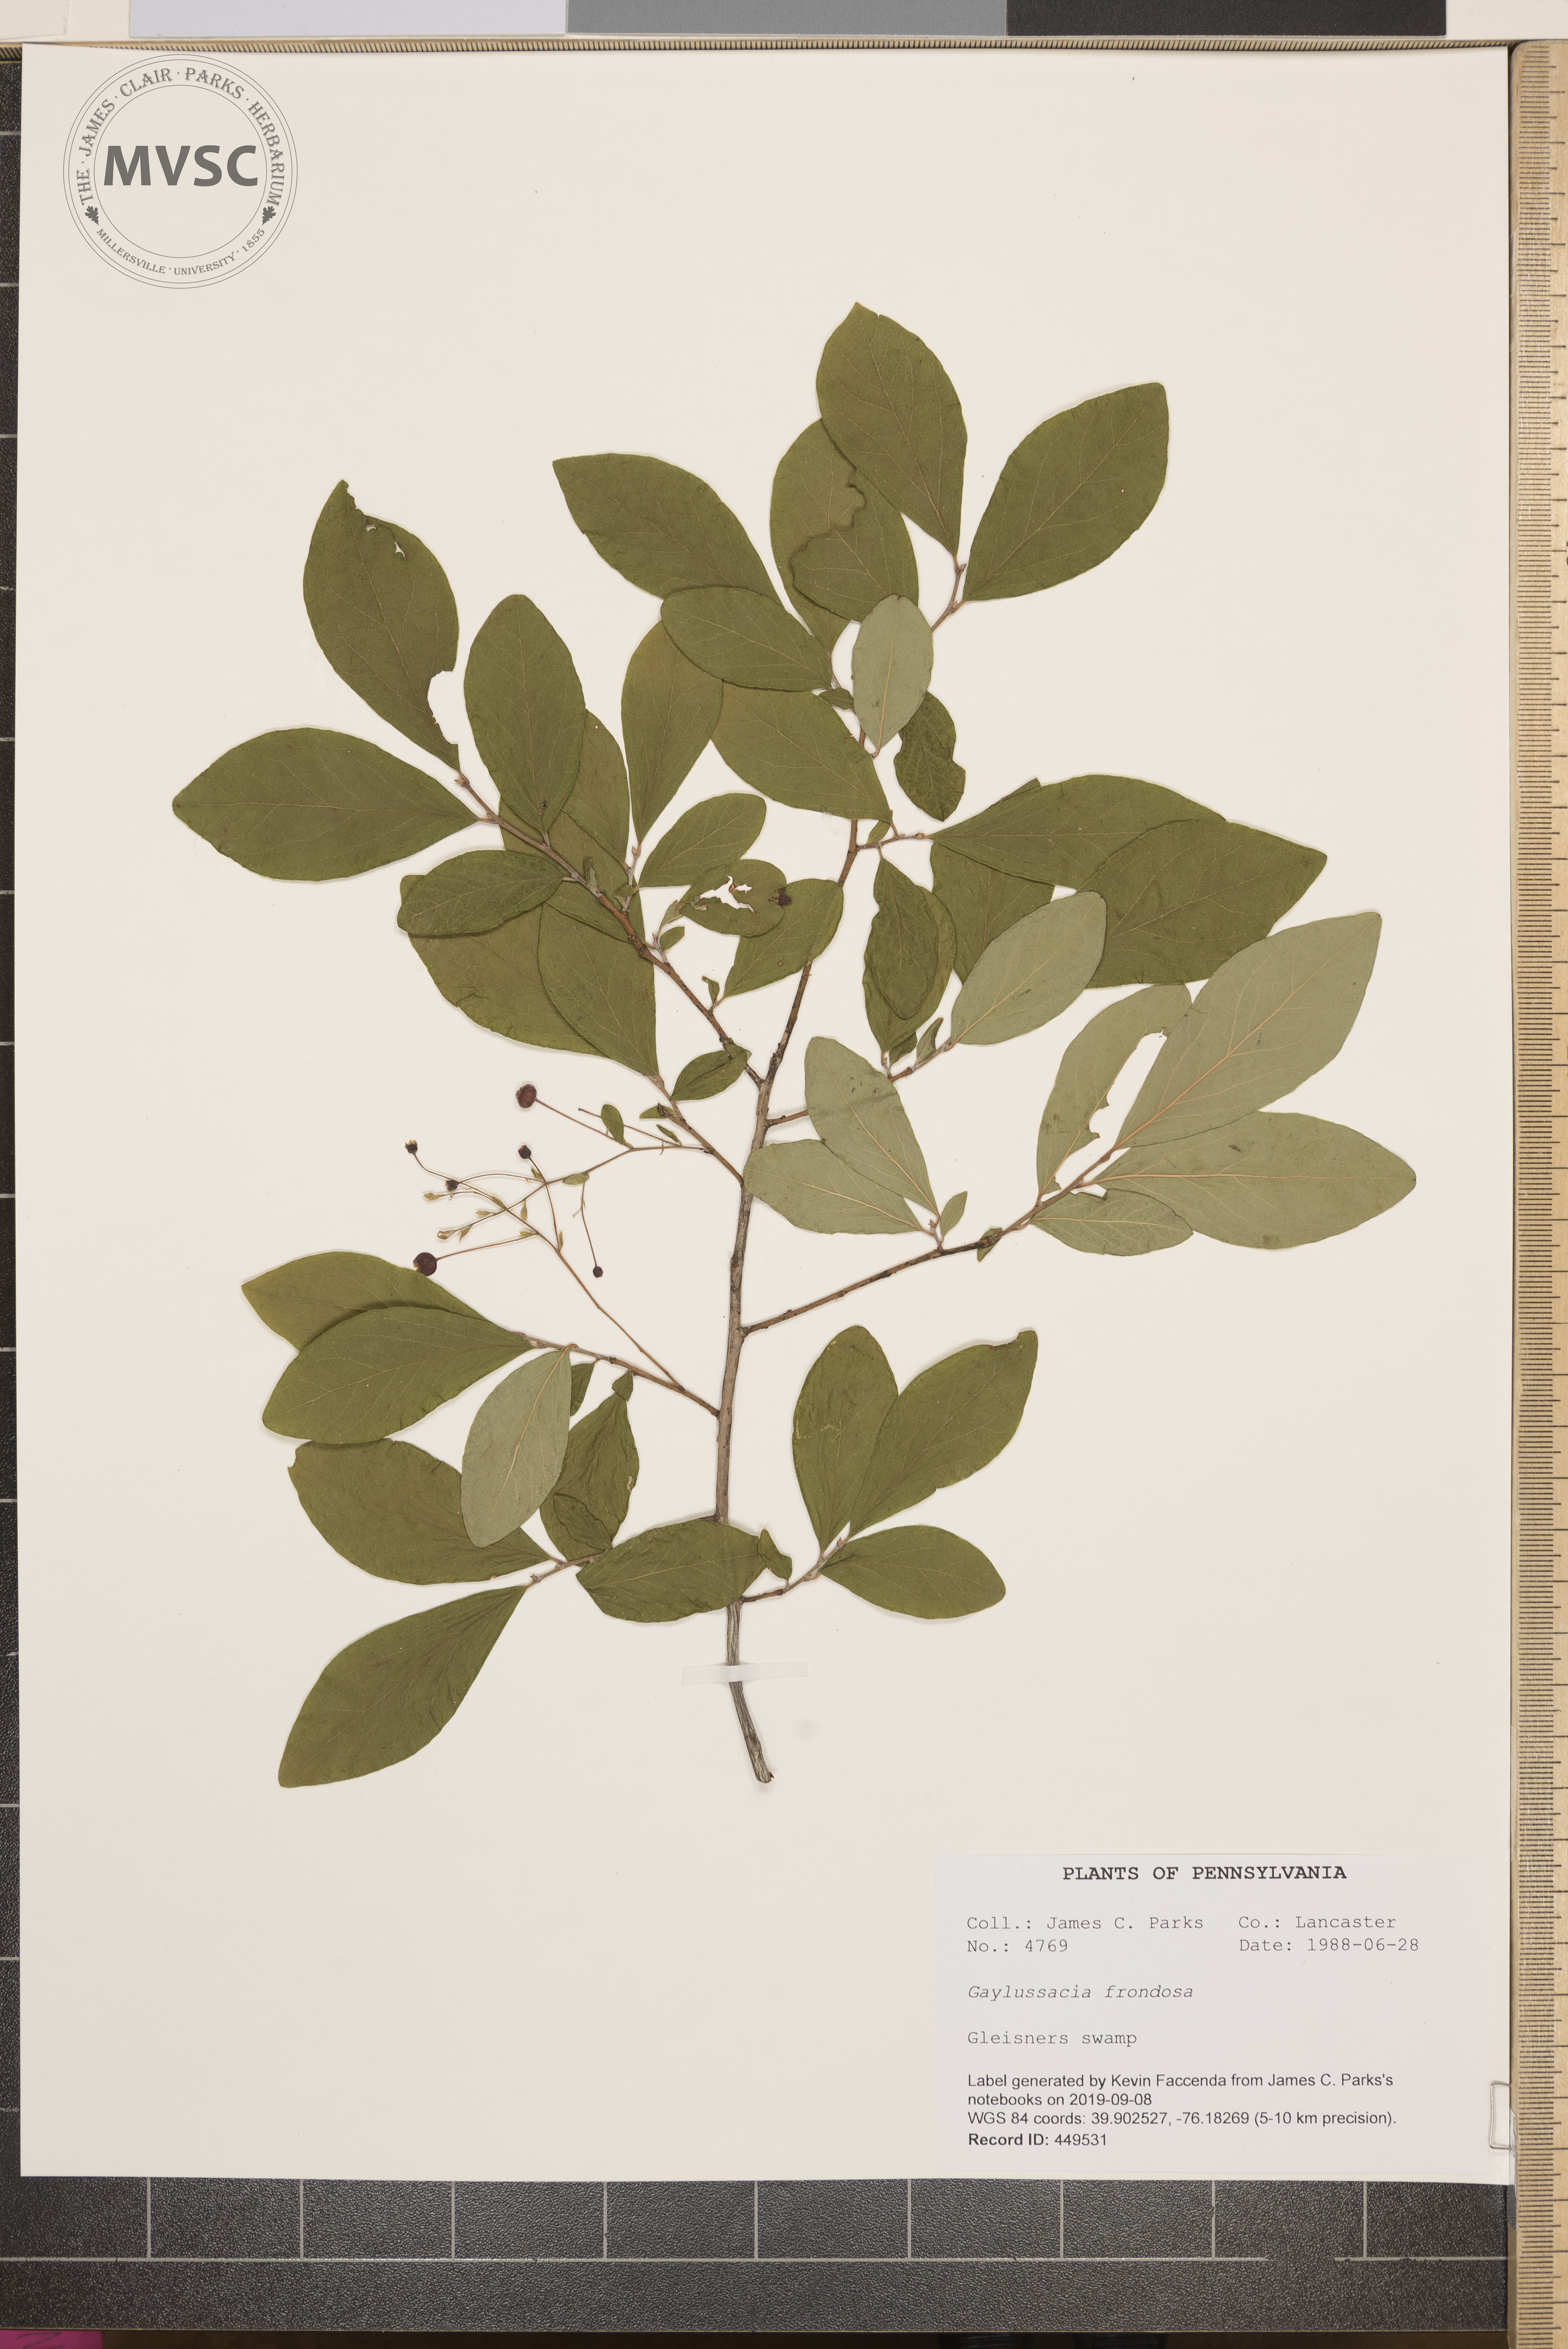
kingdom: Plantae
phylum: Tracheophyta
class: Magnoliopsida
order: Ericales
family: Ericaceae
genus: Gaylussacia
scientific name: Gaylussacia frondosa
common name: Dangleberry
